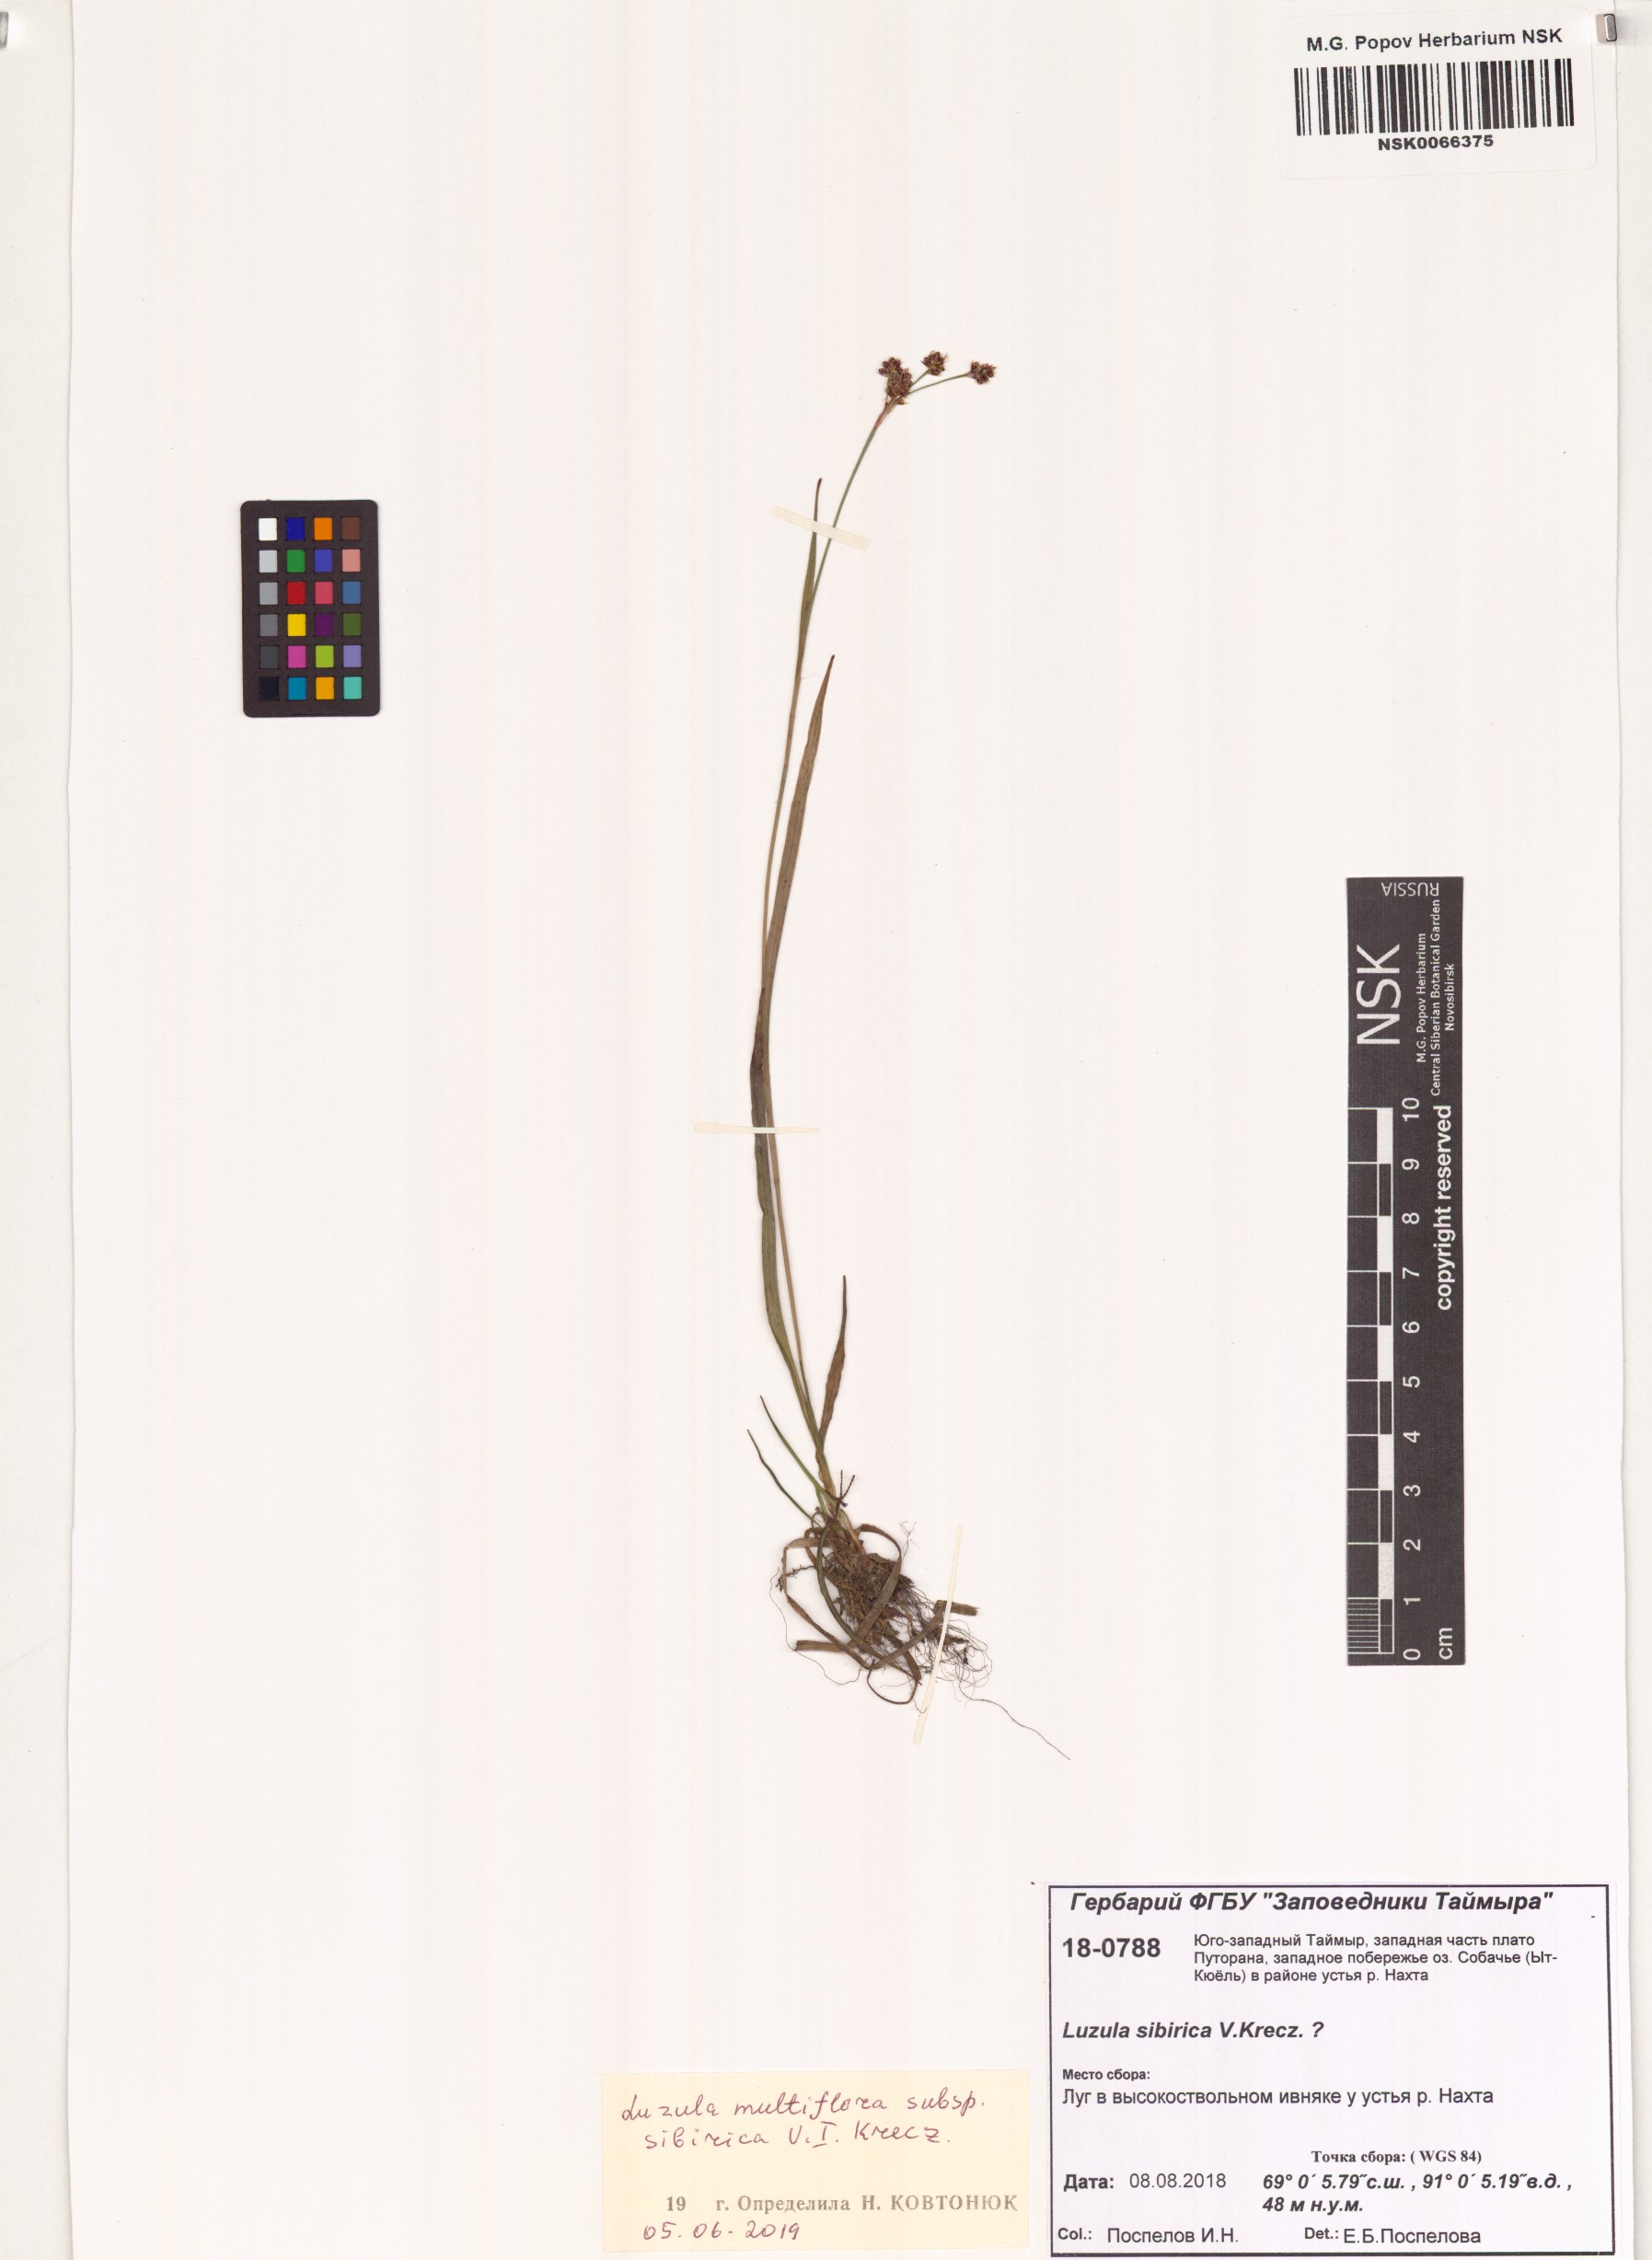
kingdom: Plantae
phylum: Tracheophyta
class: Liliopsida
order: Poales
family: Juncaceae
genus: Luzula
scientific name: Luzula multiflora
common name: Heath wood-rush
